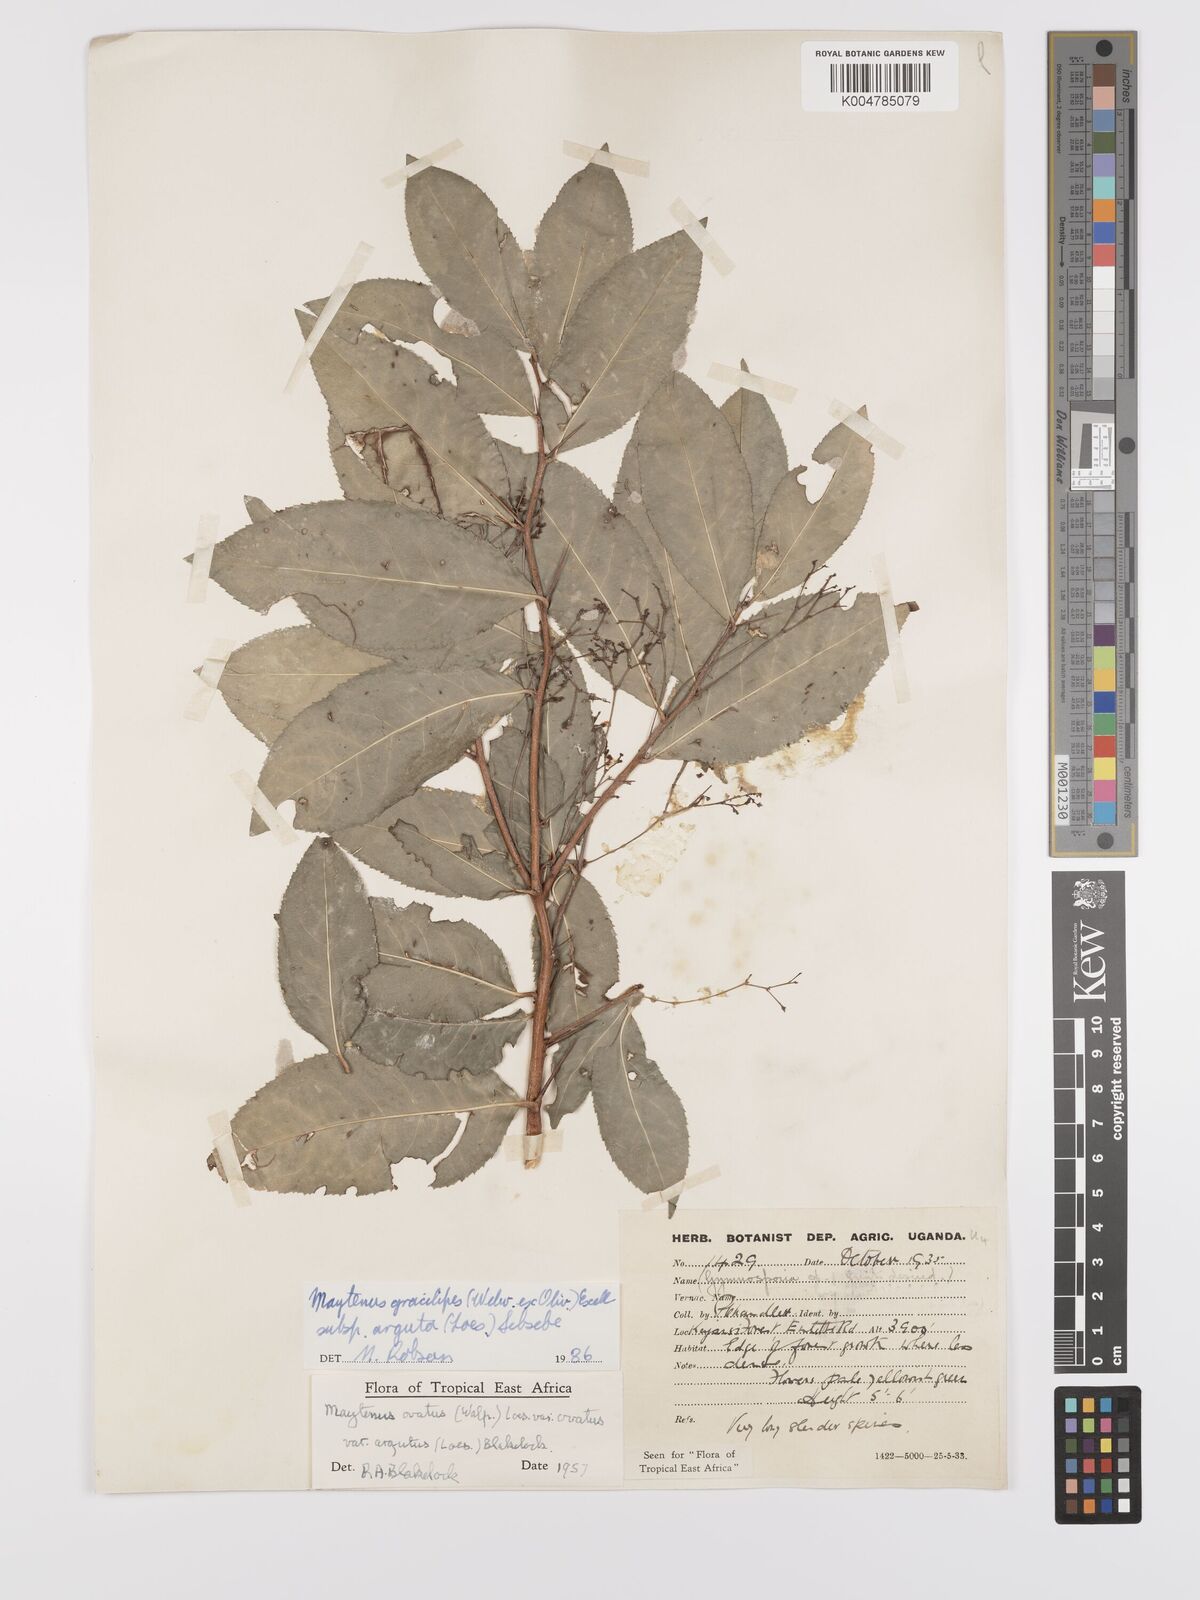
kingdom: Plantae
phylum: Tracheophyta
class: Magnoliopsida
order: Celastrales
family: Celastraceae
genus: Gymnosporia
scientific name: Gymnosporia gracilipes
